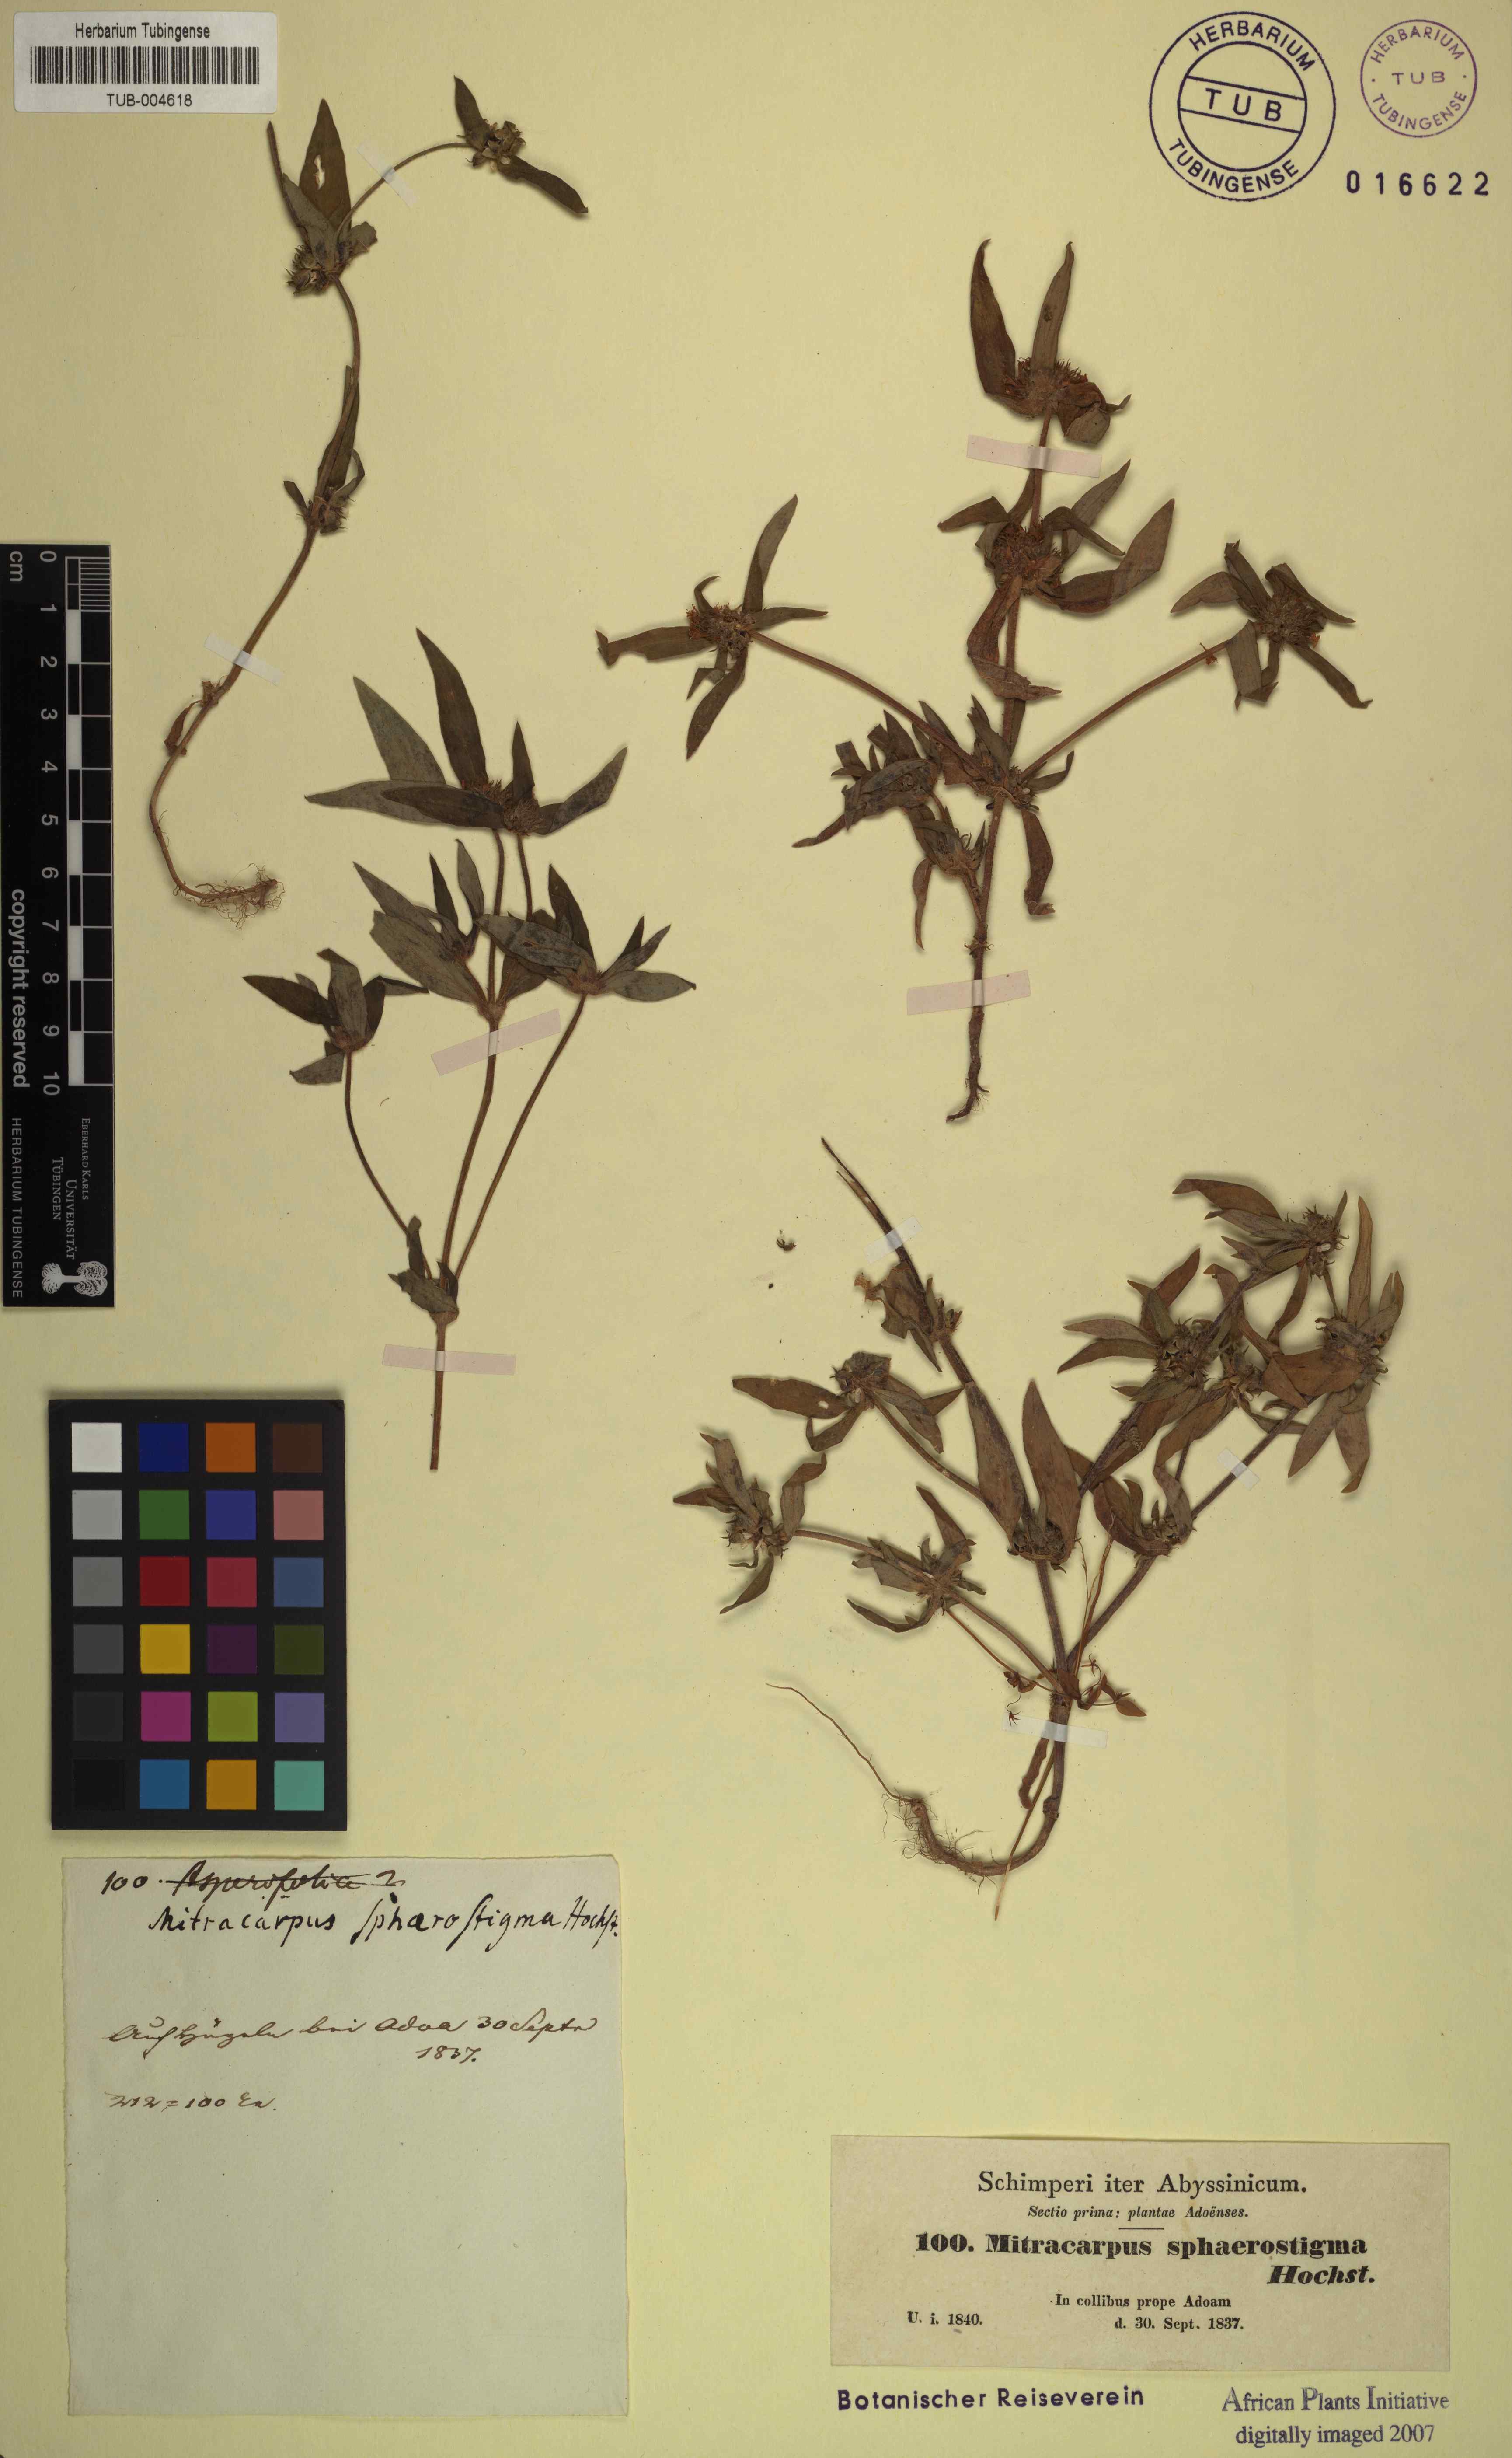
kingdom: Plantae
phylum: Tracheophyta
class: Magnoliopsida
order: Gentianales
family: Rubiaceae
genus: Spermacoce
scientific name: Spermacoce sphaerostigma
